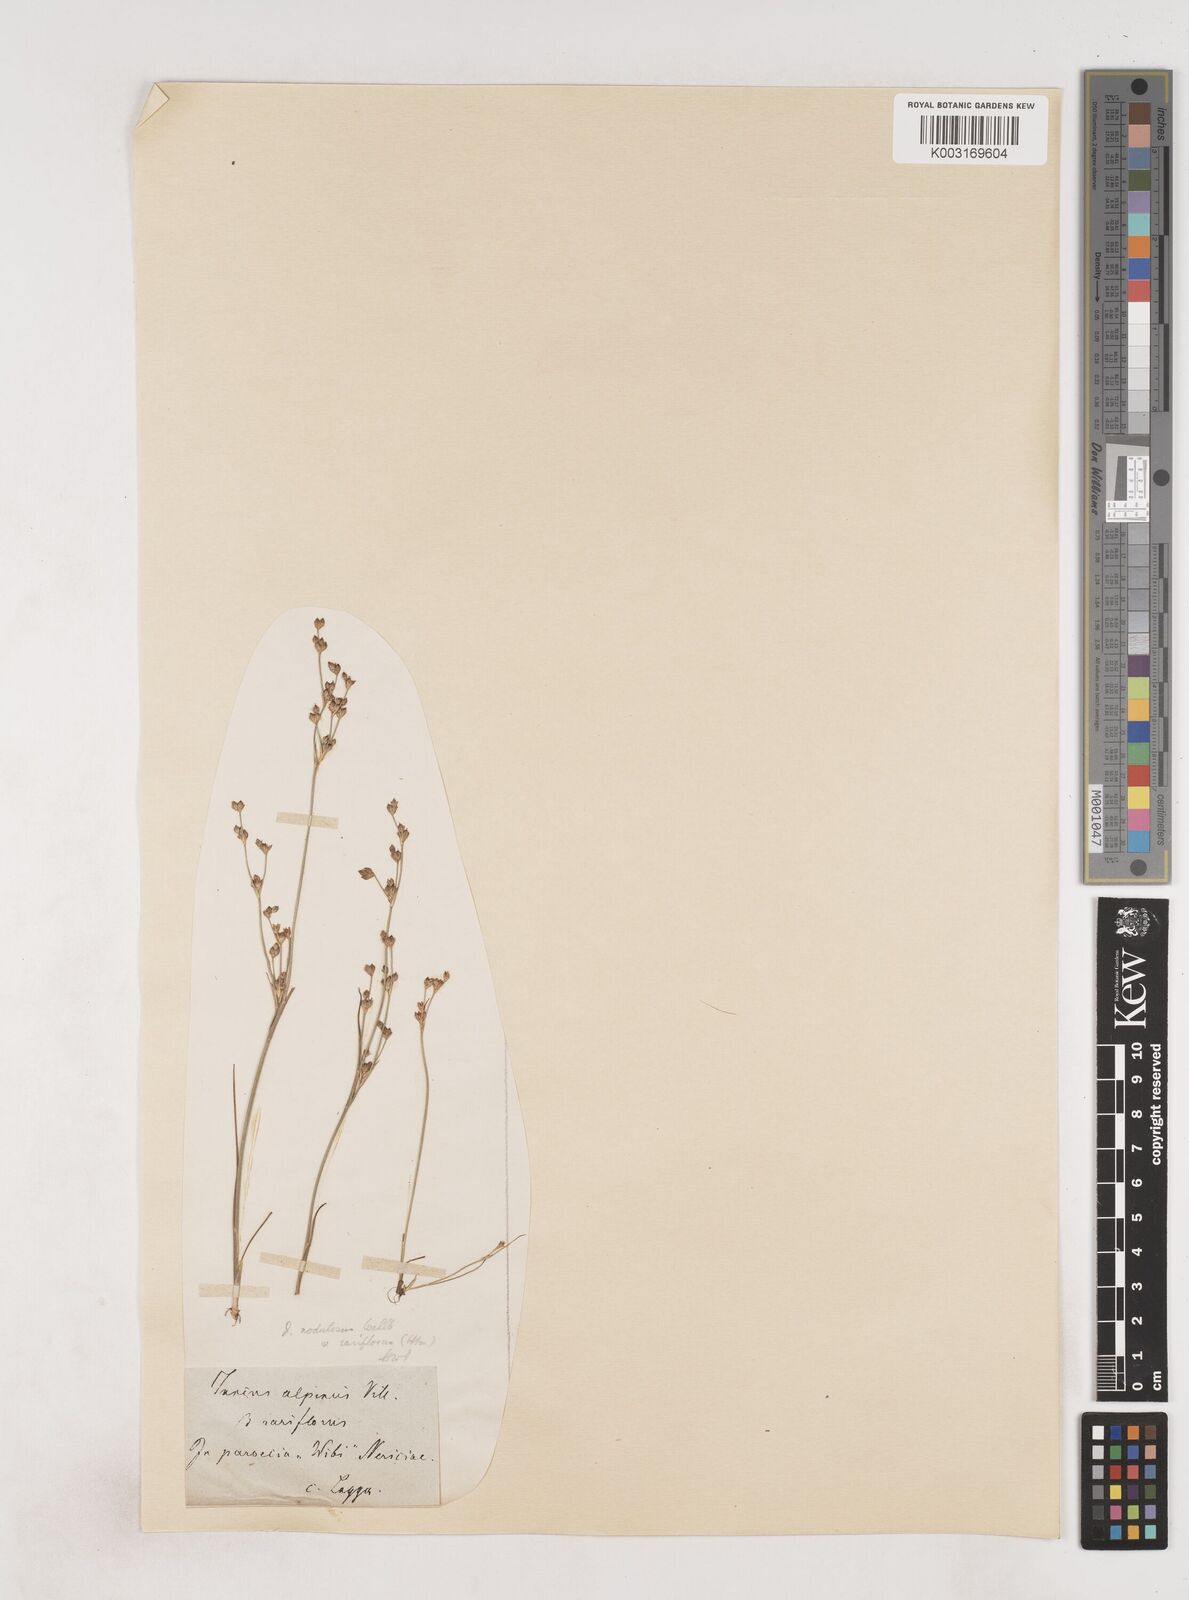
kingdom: Plantae
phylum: Tracheophyta
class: Liliopsida
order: Poales
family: Juncaceae
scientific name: Juncaceae
